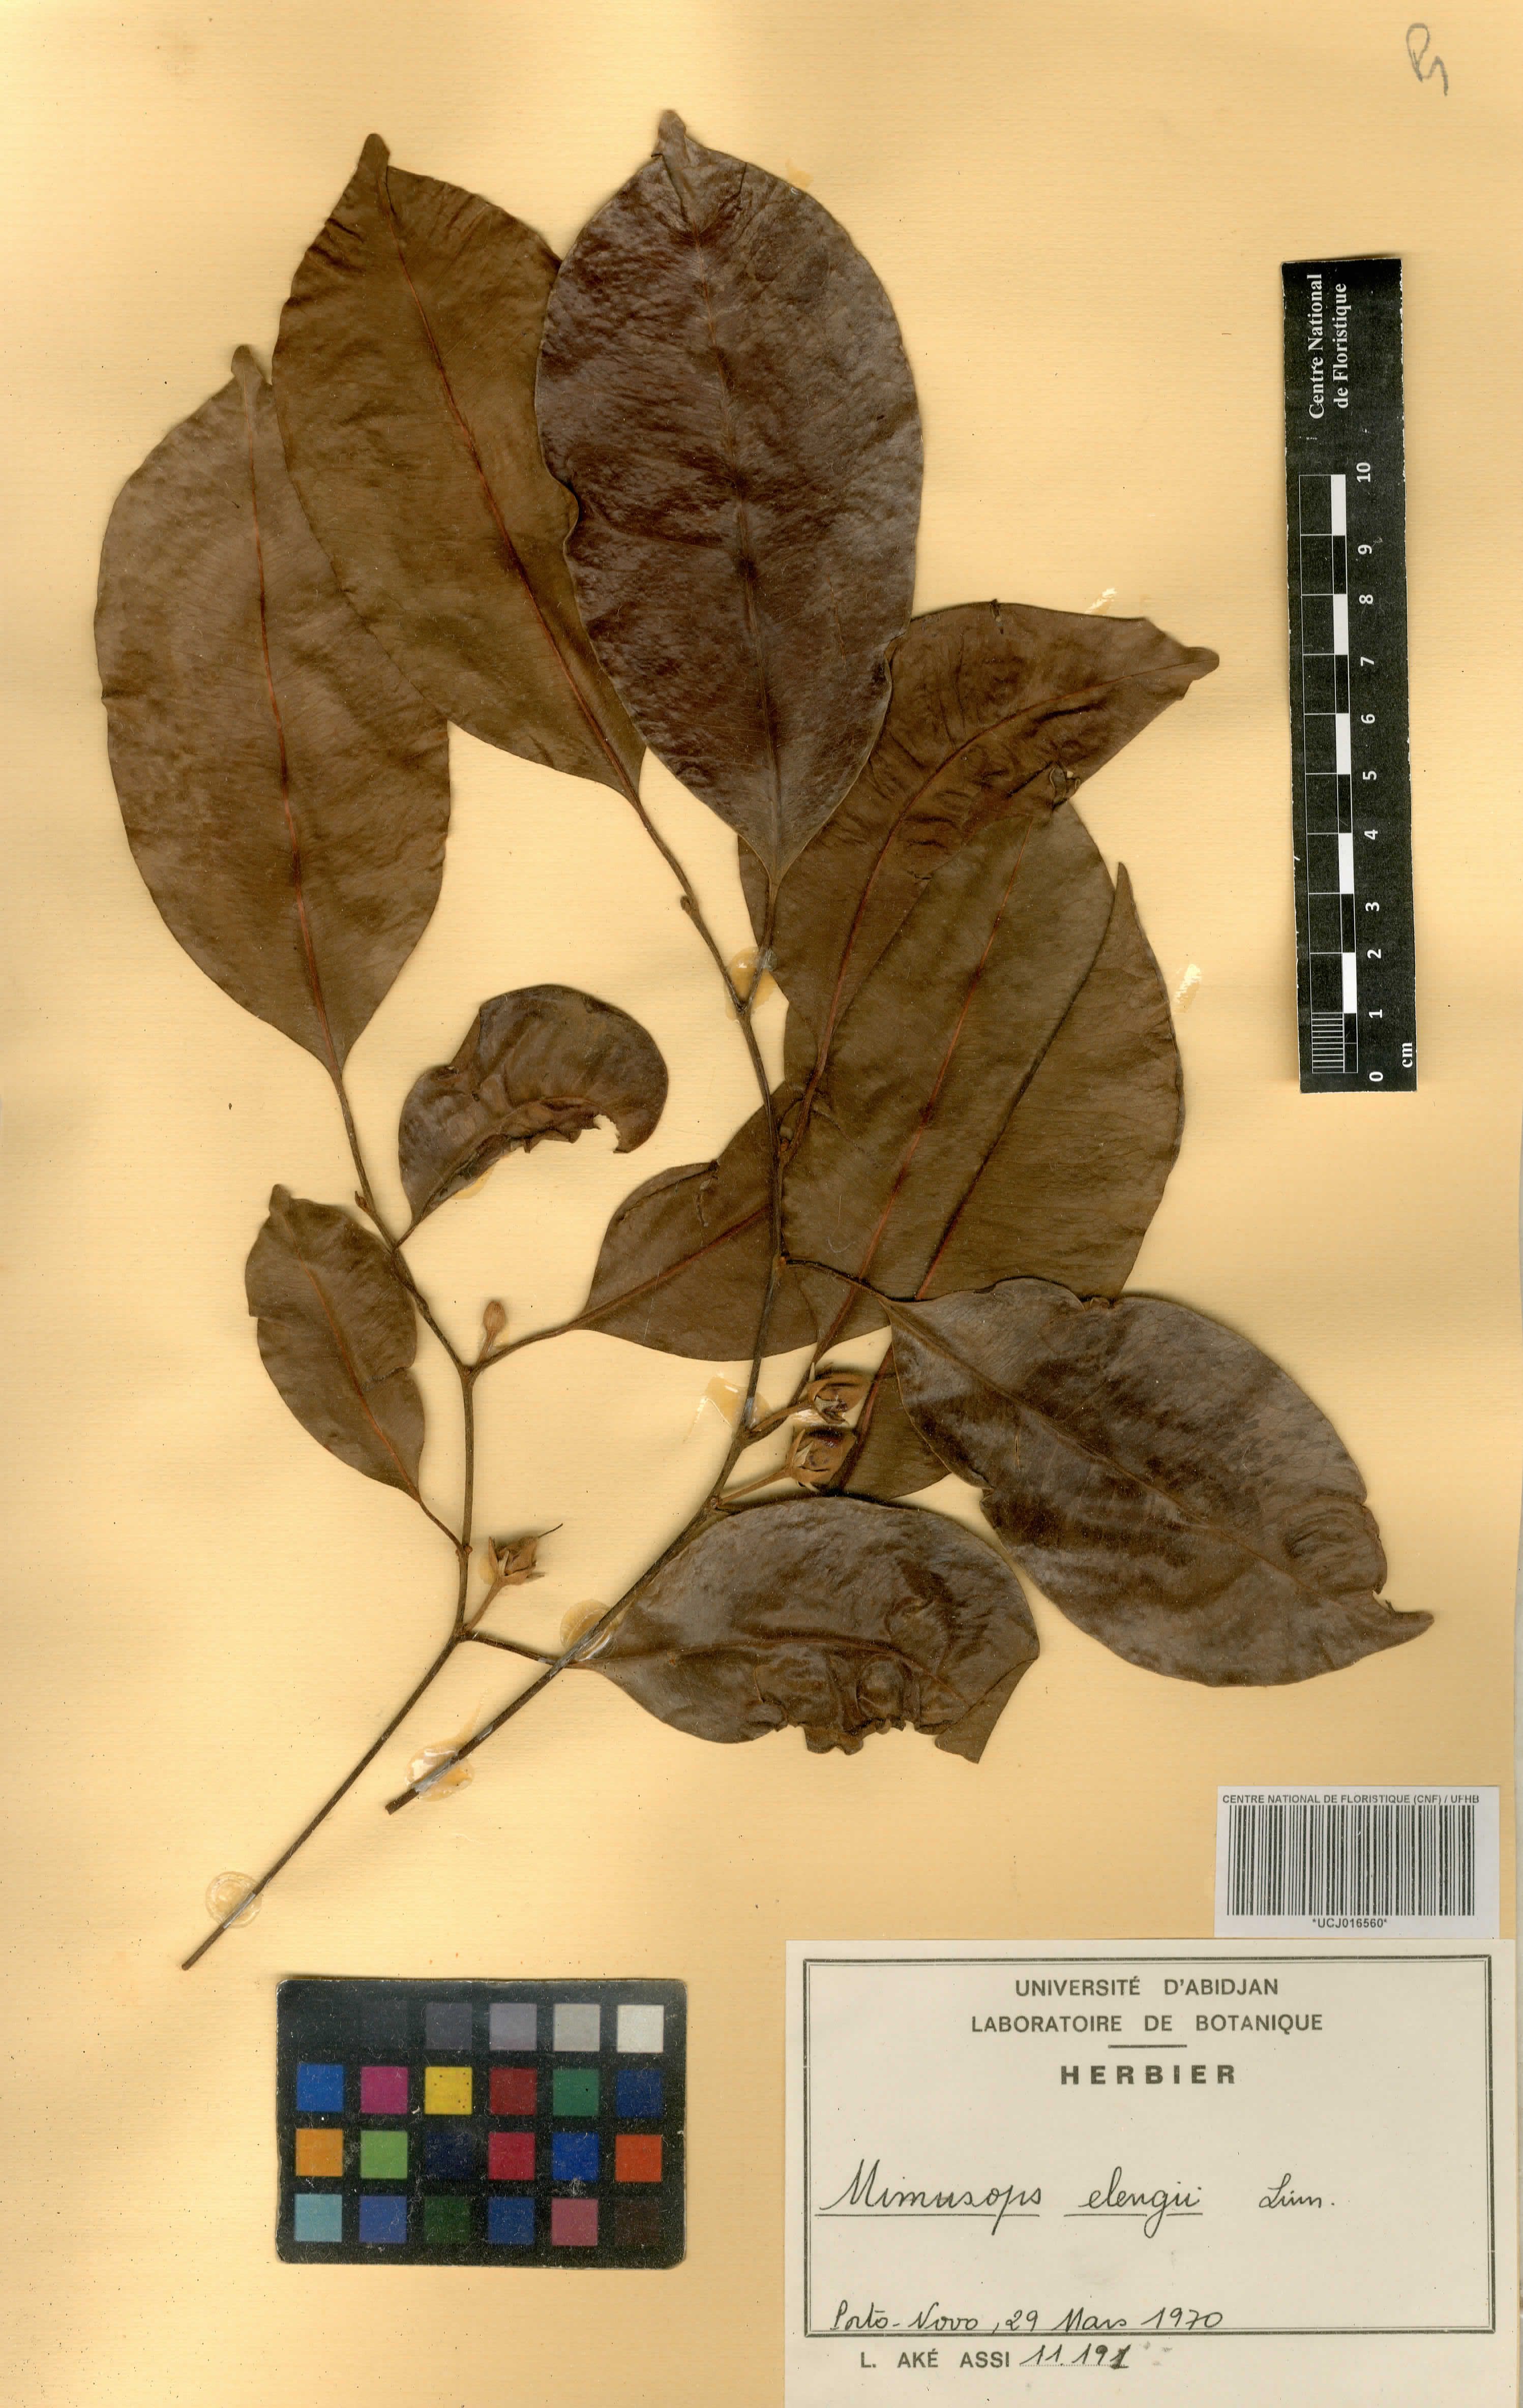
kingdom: Plantae
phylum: Tracheophyta
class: Magnoliopsida
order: Ericales
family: Sapotaceae
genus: Mimusops
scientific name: Mimusops elengi
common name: Spanish cherry
